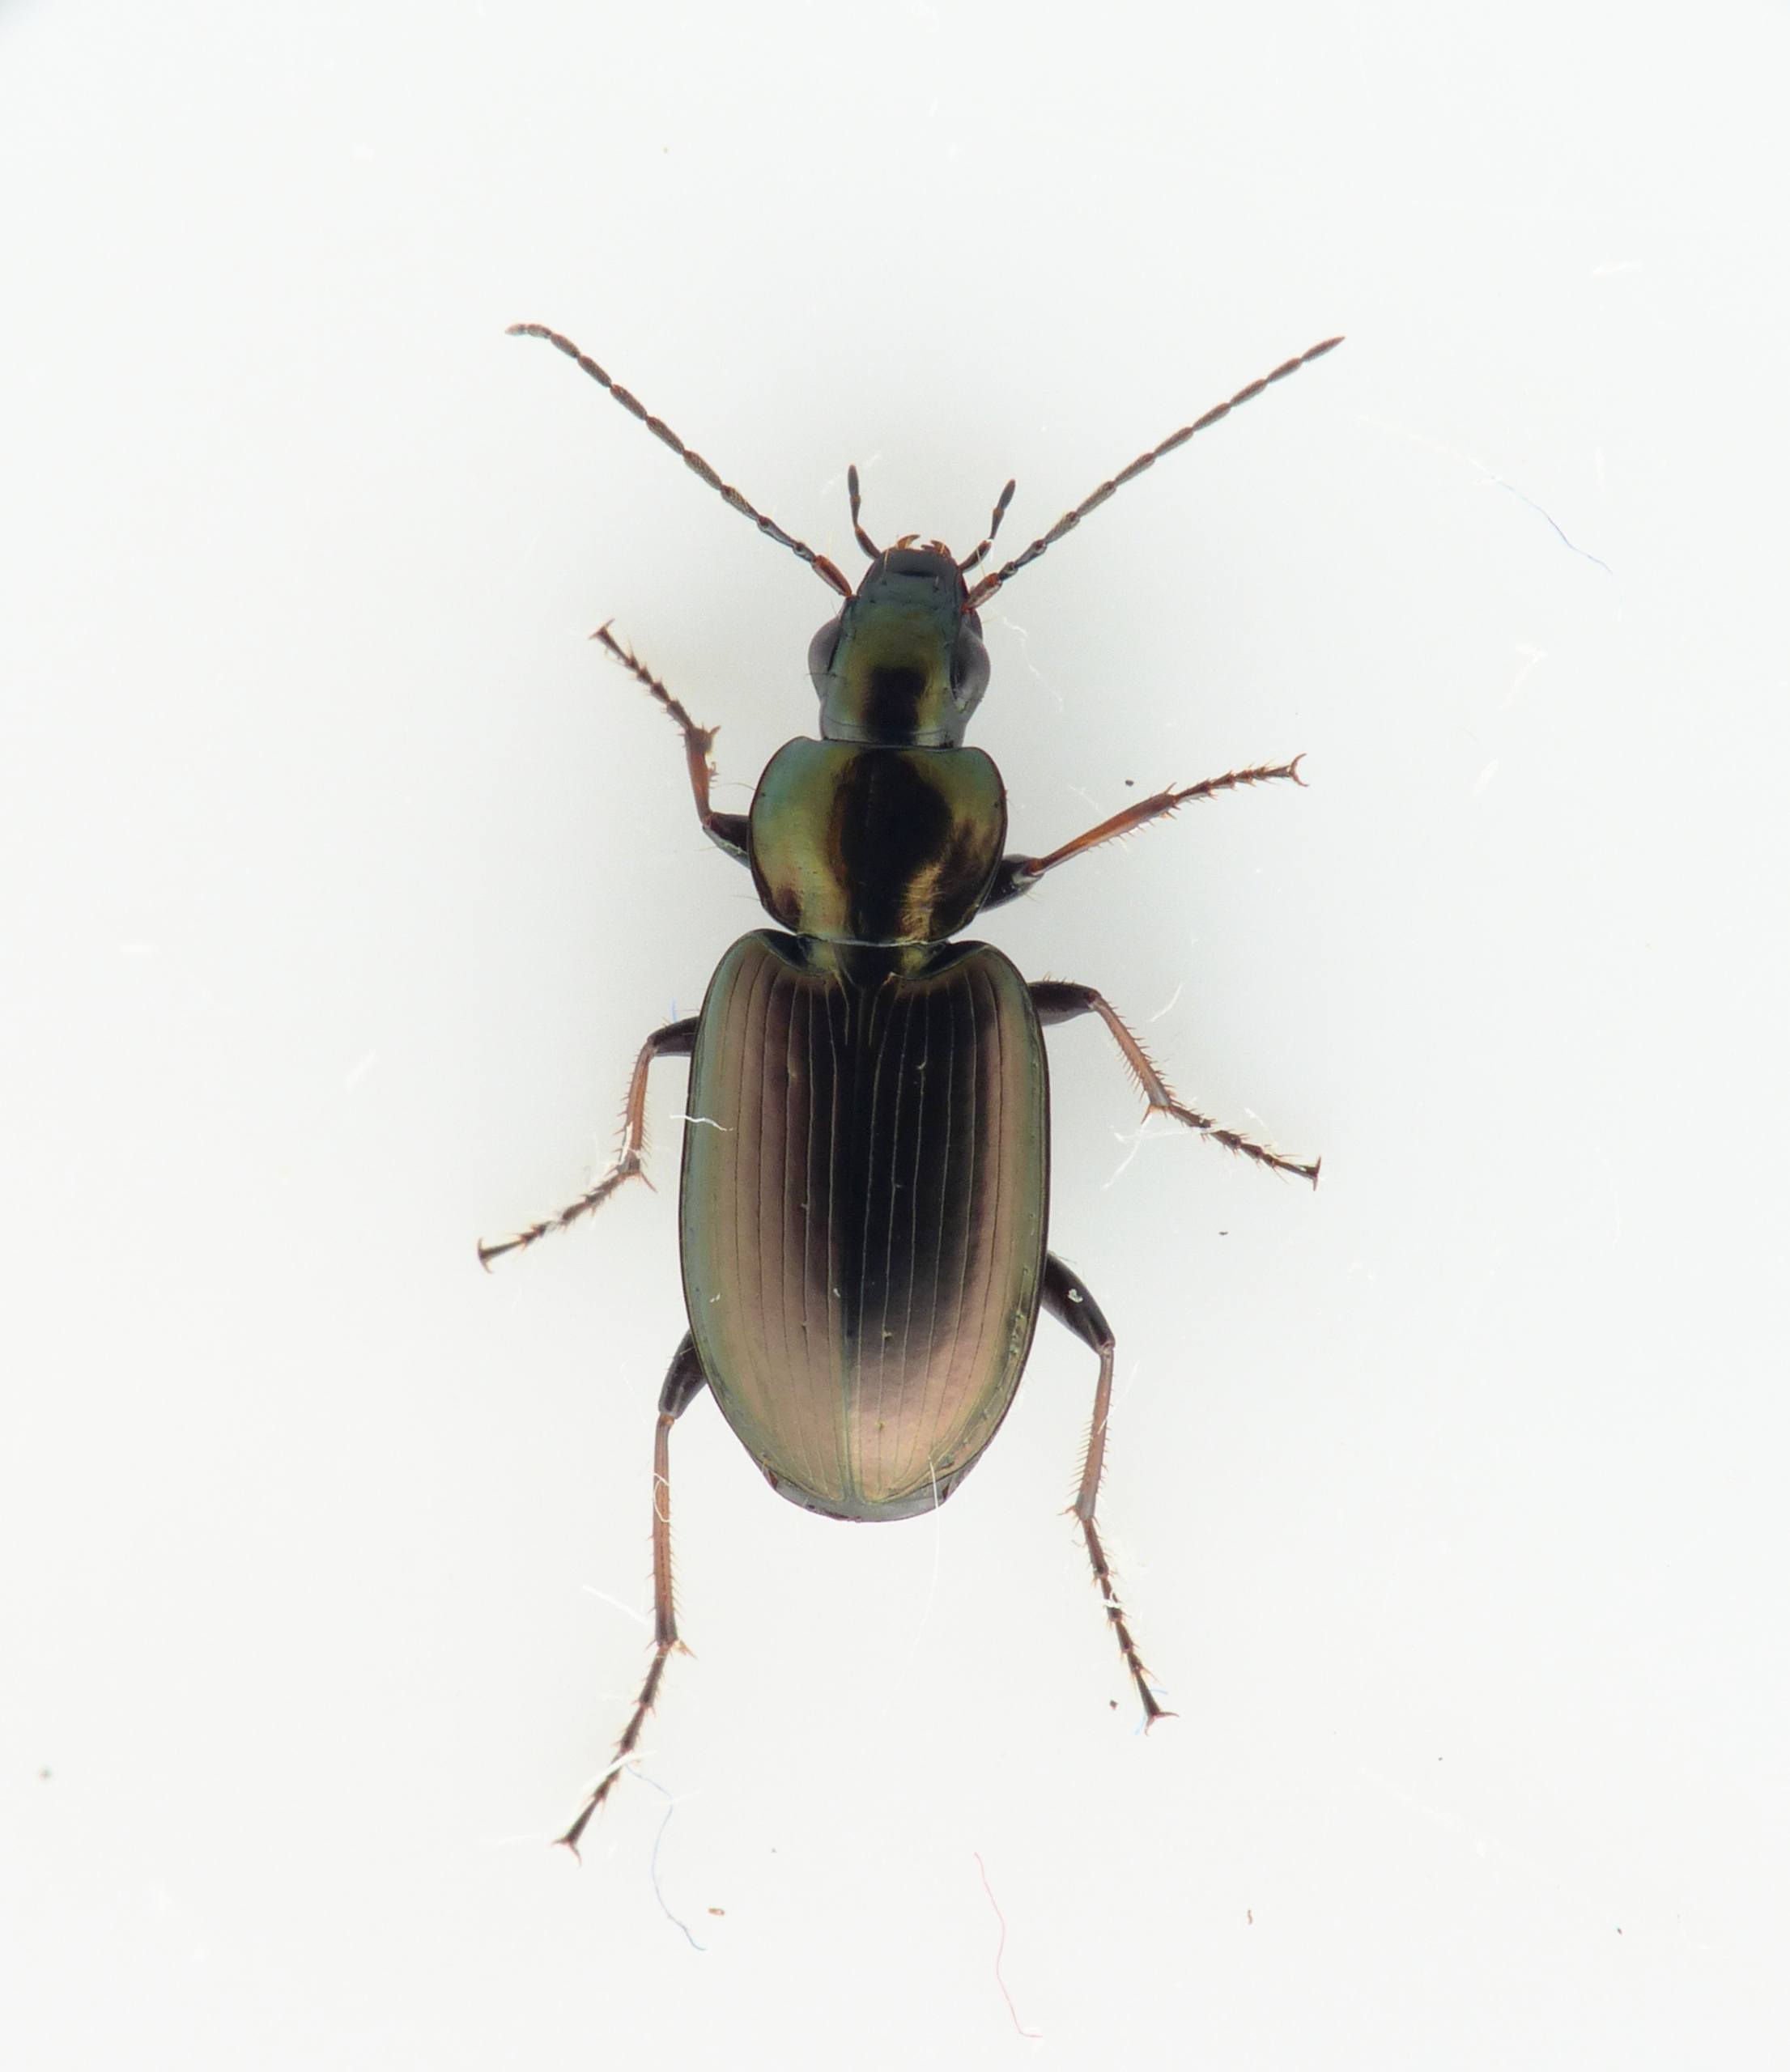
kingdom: Animalia
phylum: Arthropoda
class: Insecta
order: Coleoptera
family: Carabidae
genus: Agonum
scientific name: Agonum muelleri
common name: Fintstribet kvikløber
